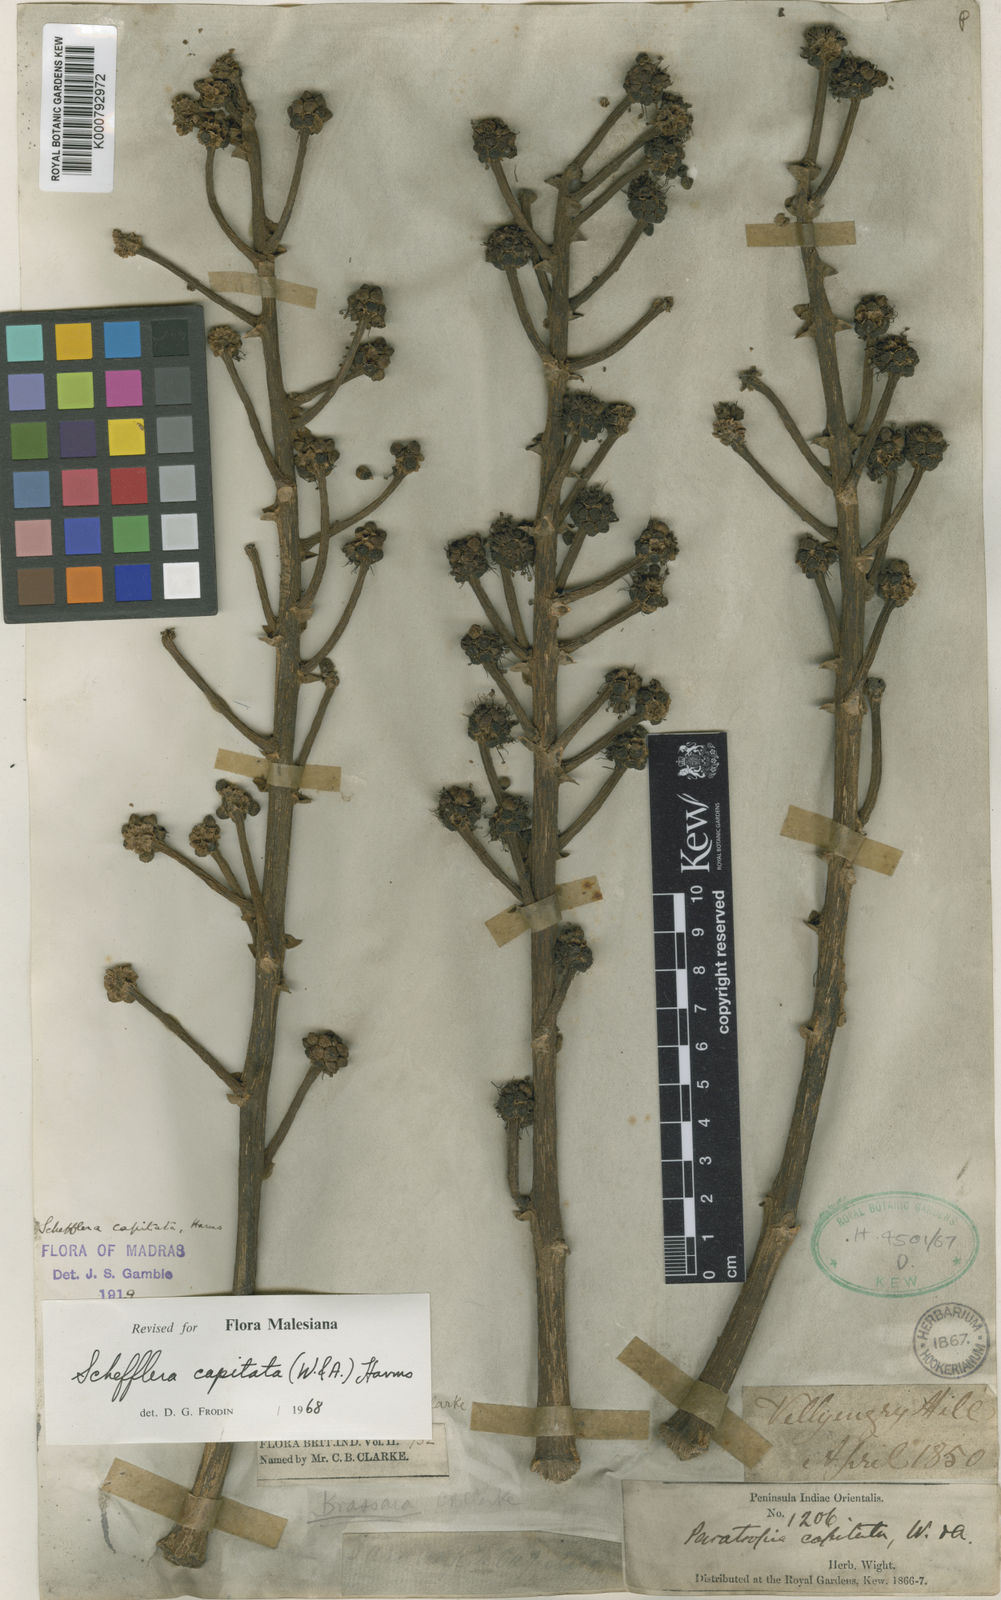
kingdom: Plantae
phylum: Tracheophyta
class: Magnoliopsida
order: Apiales
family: Araliaceae
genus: Heptapleurum
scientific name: Heptapleurum capitatum
